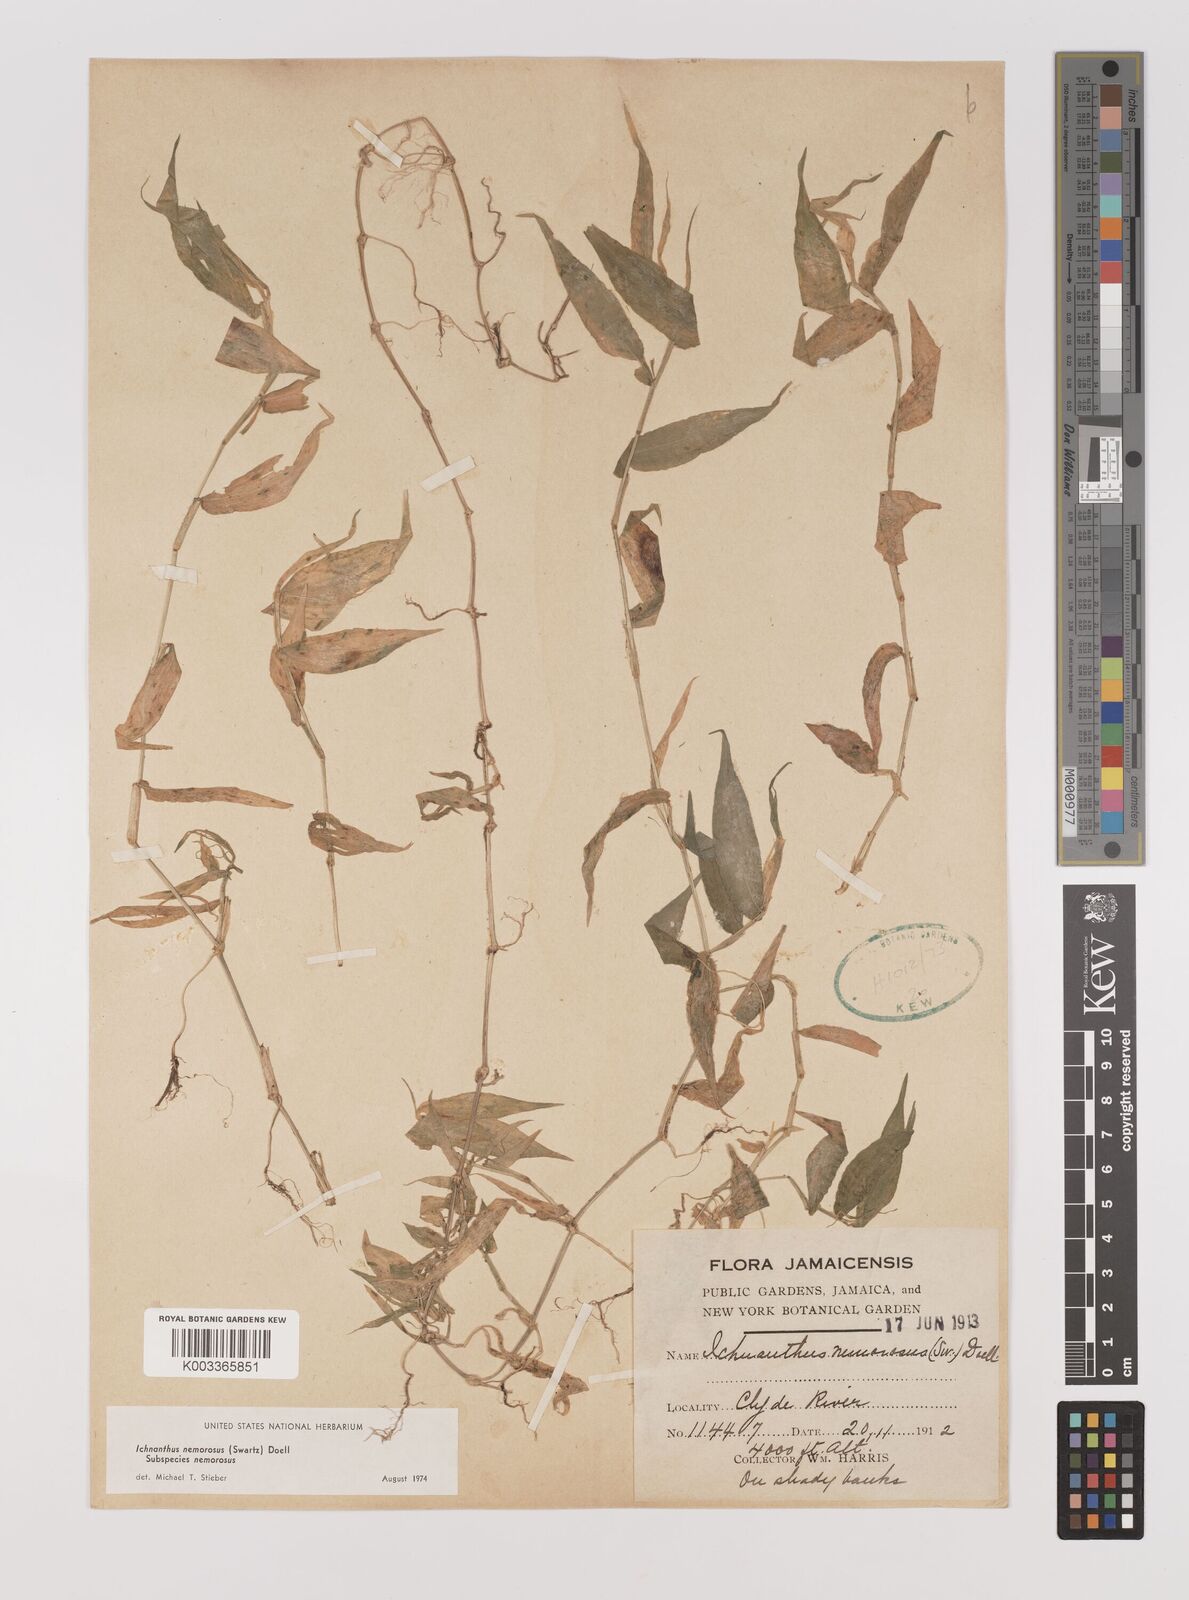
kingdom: Plantae
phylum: Tracheophyta
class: Liliopsida
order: Poales
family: Poaceae
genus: Ichnanthus
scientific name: Ichnanthus nemorosus
